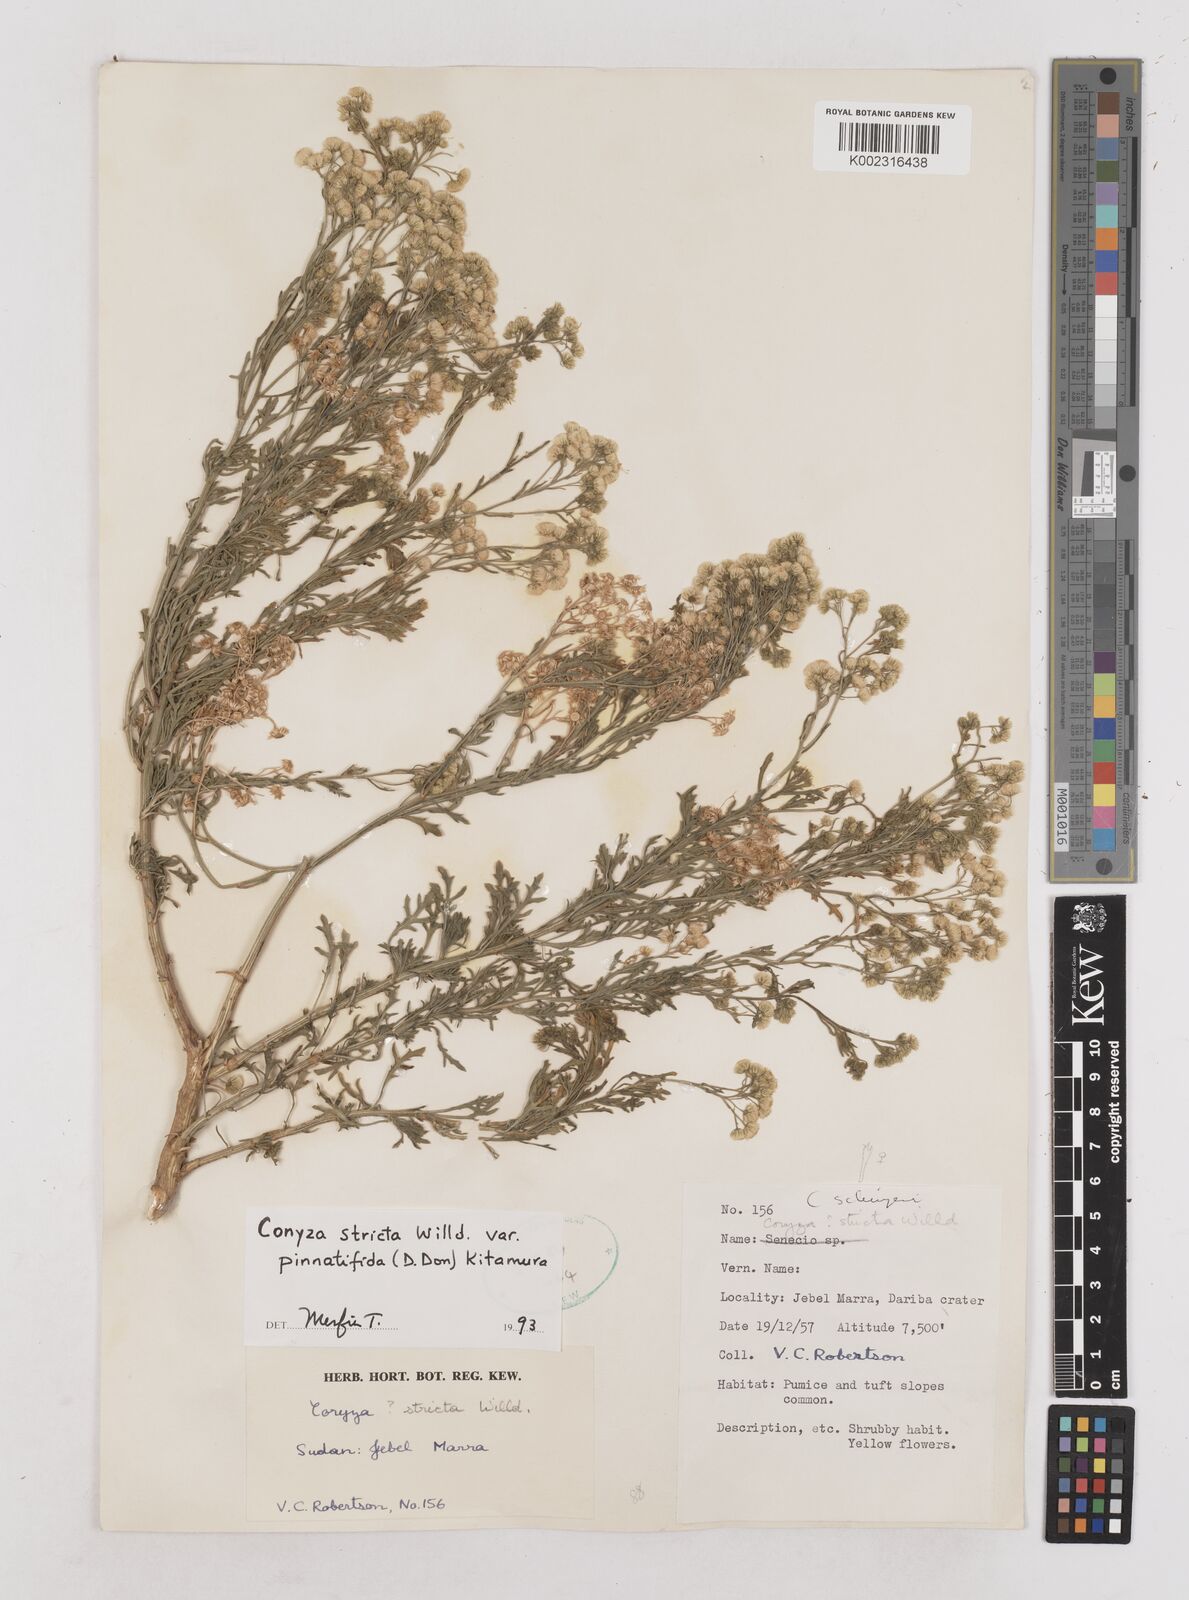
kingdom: Plantae
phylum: Tracheophyta
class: Magnoliopsida
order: Asterales
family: Asteraceae
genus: Nidorella
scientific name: Nidorella triloba
